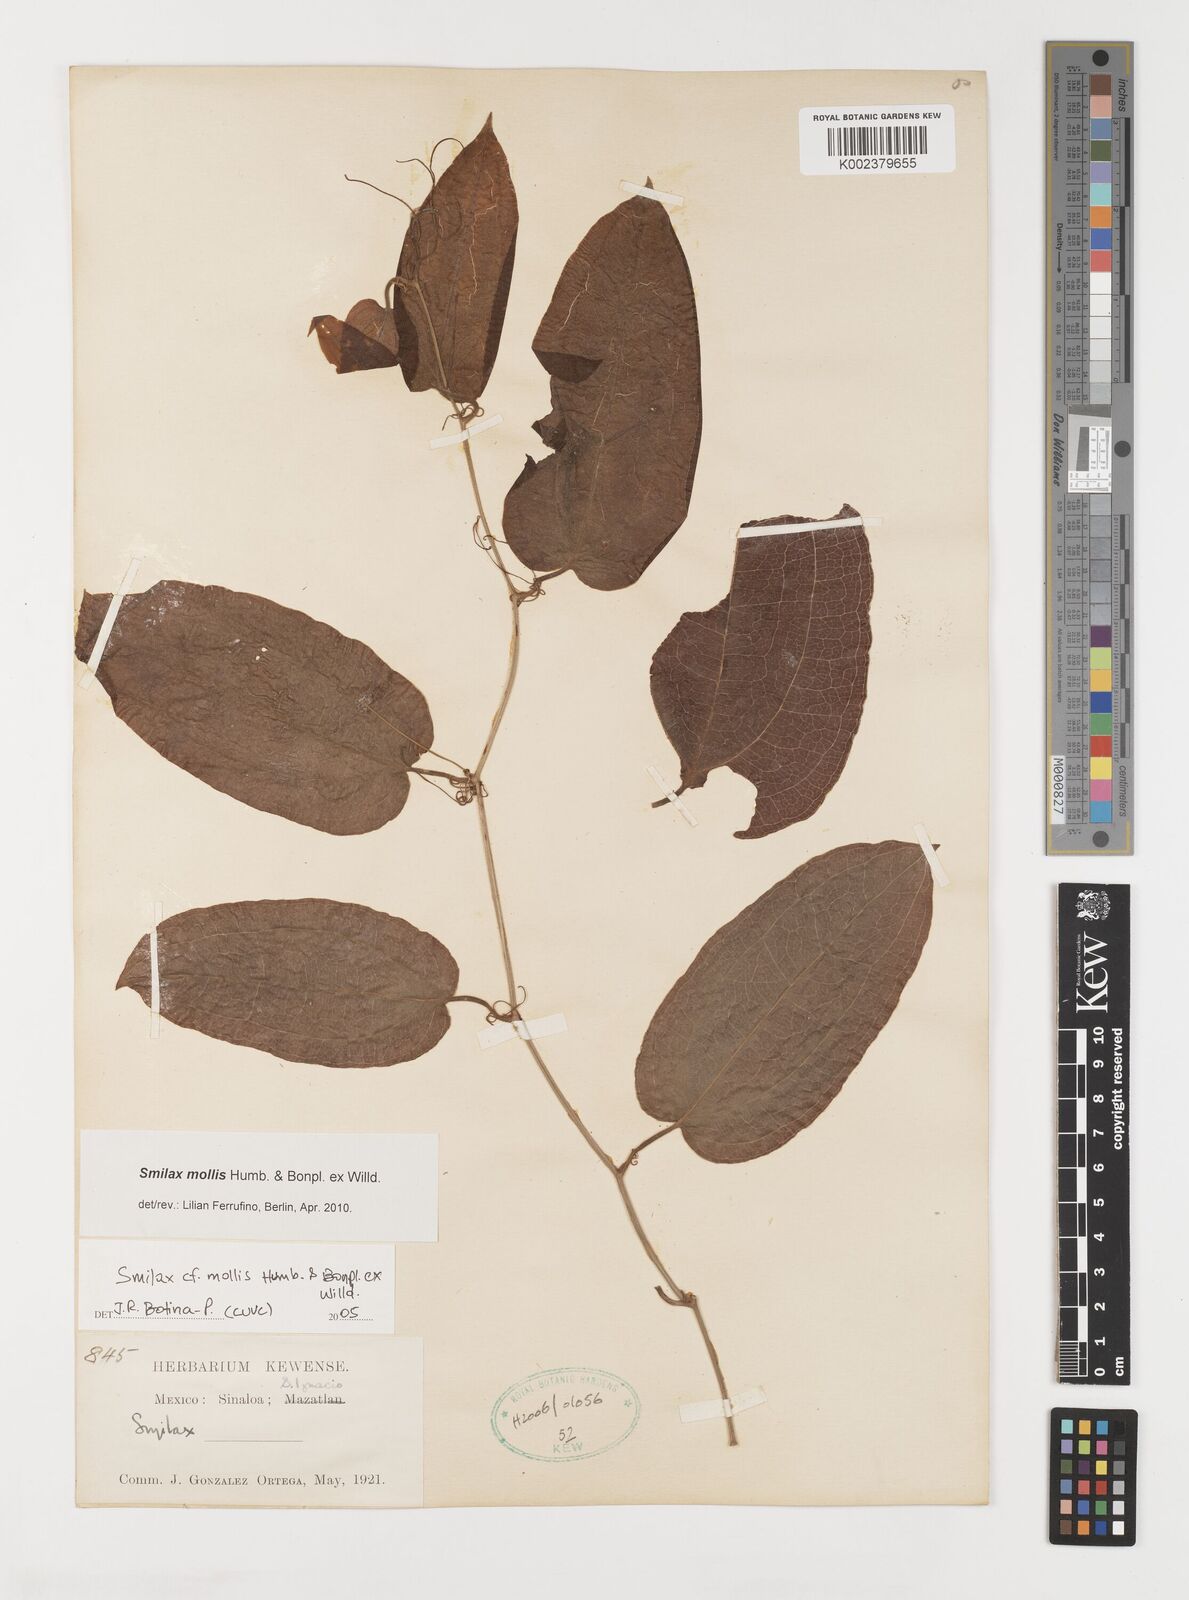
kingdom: Plantae
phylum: Tracheophyta
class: Liliopsida
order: Liliales
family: Smilacaceae
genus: Smilax
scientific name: Smilax mollis
